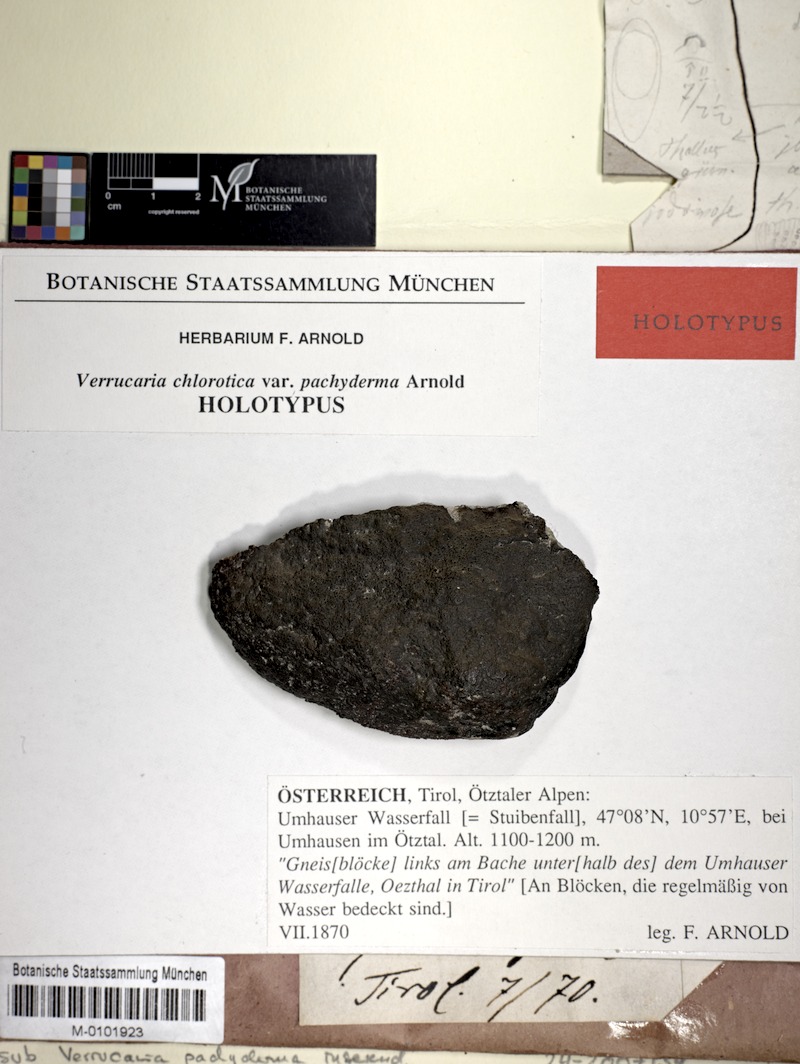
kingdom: Fungi
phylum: Ascomycota
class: Eurotiomycetes
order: Verrucariales
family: Verrucariaceae
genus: Verrucaria
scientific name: Verrucaria pachyderma
